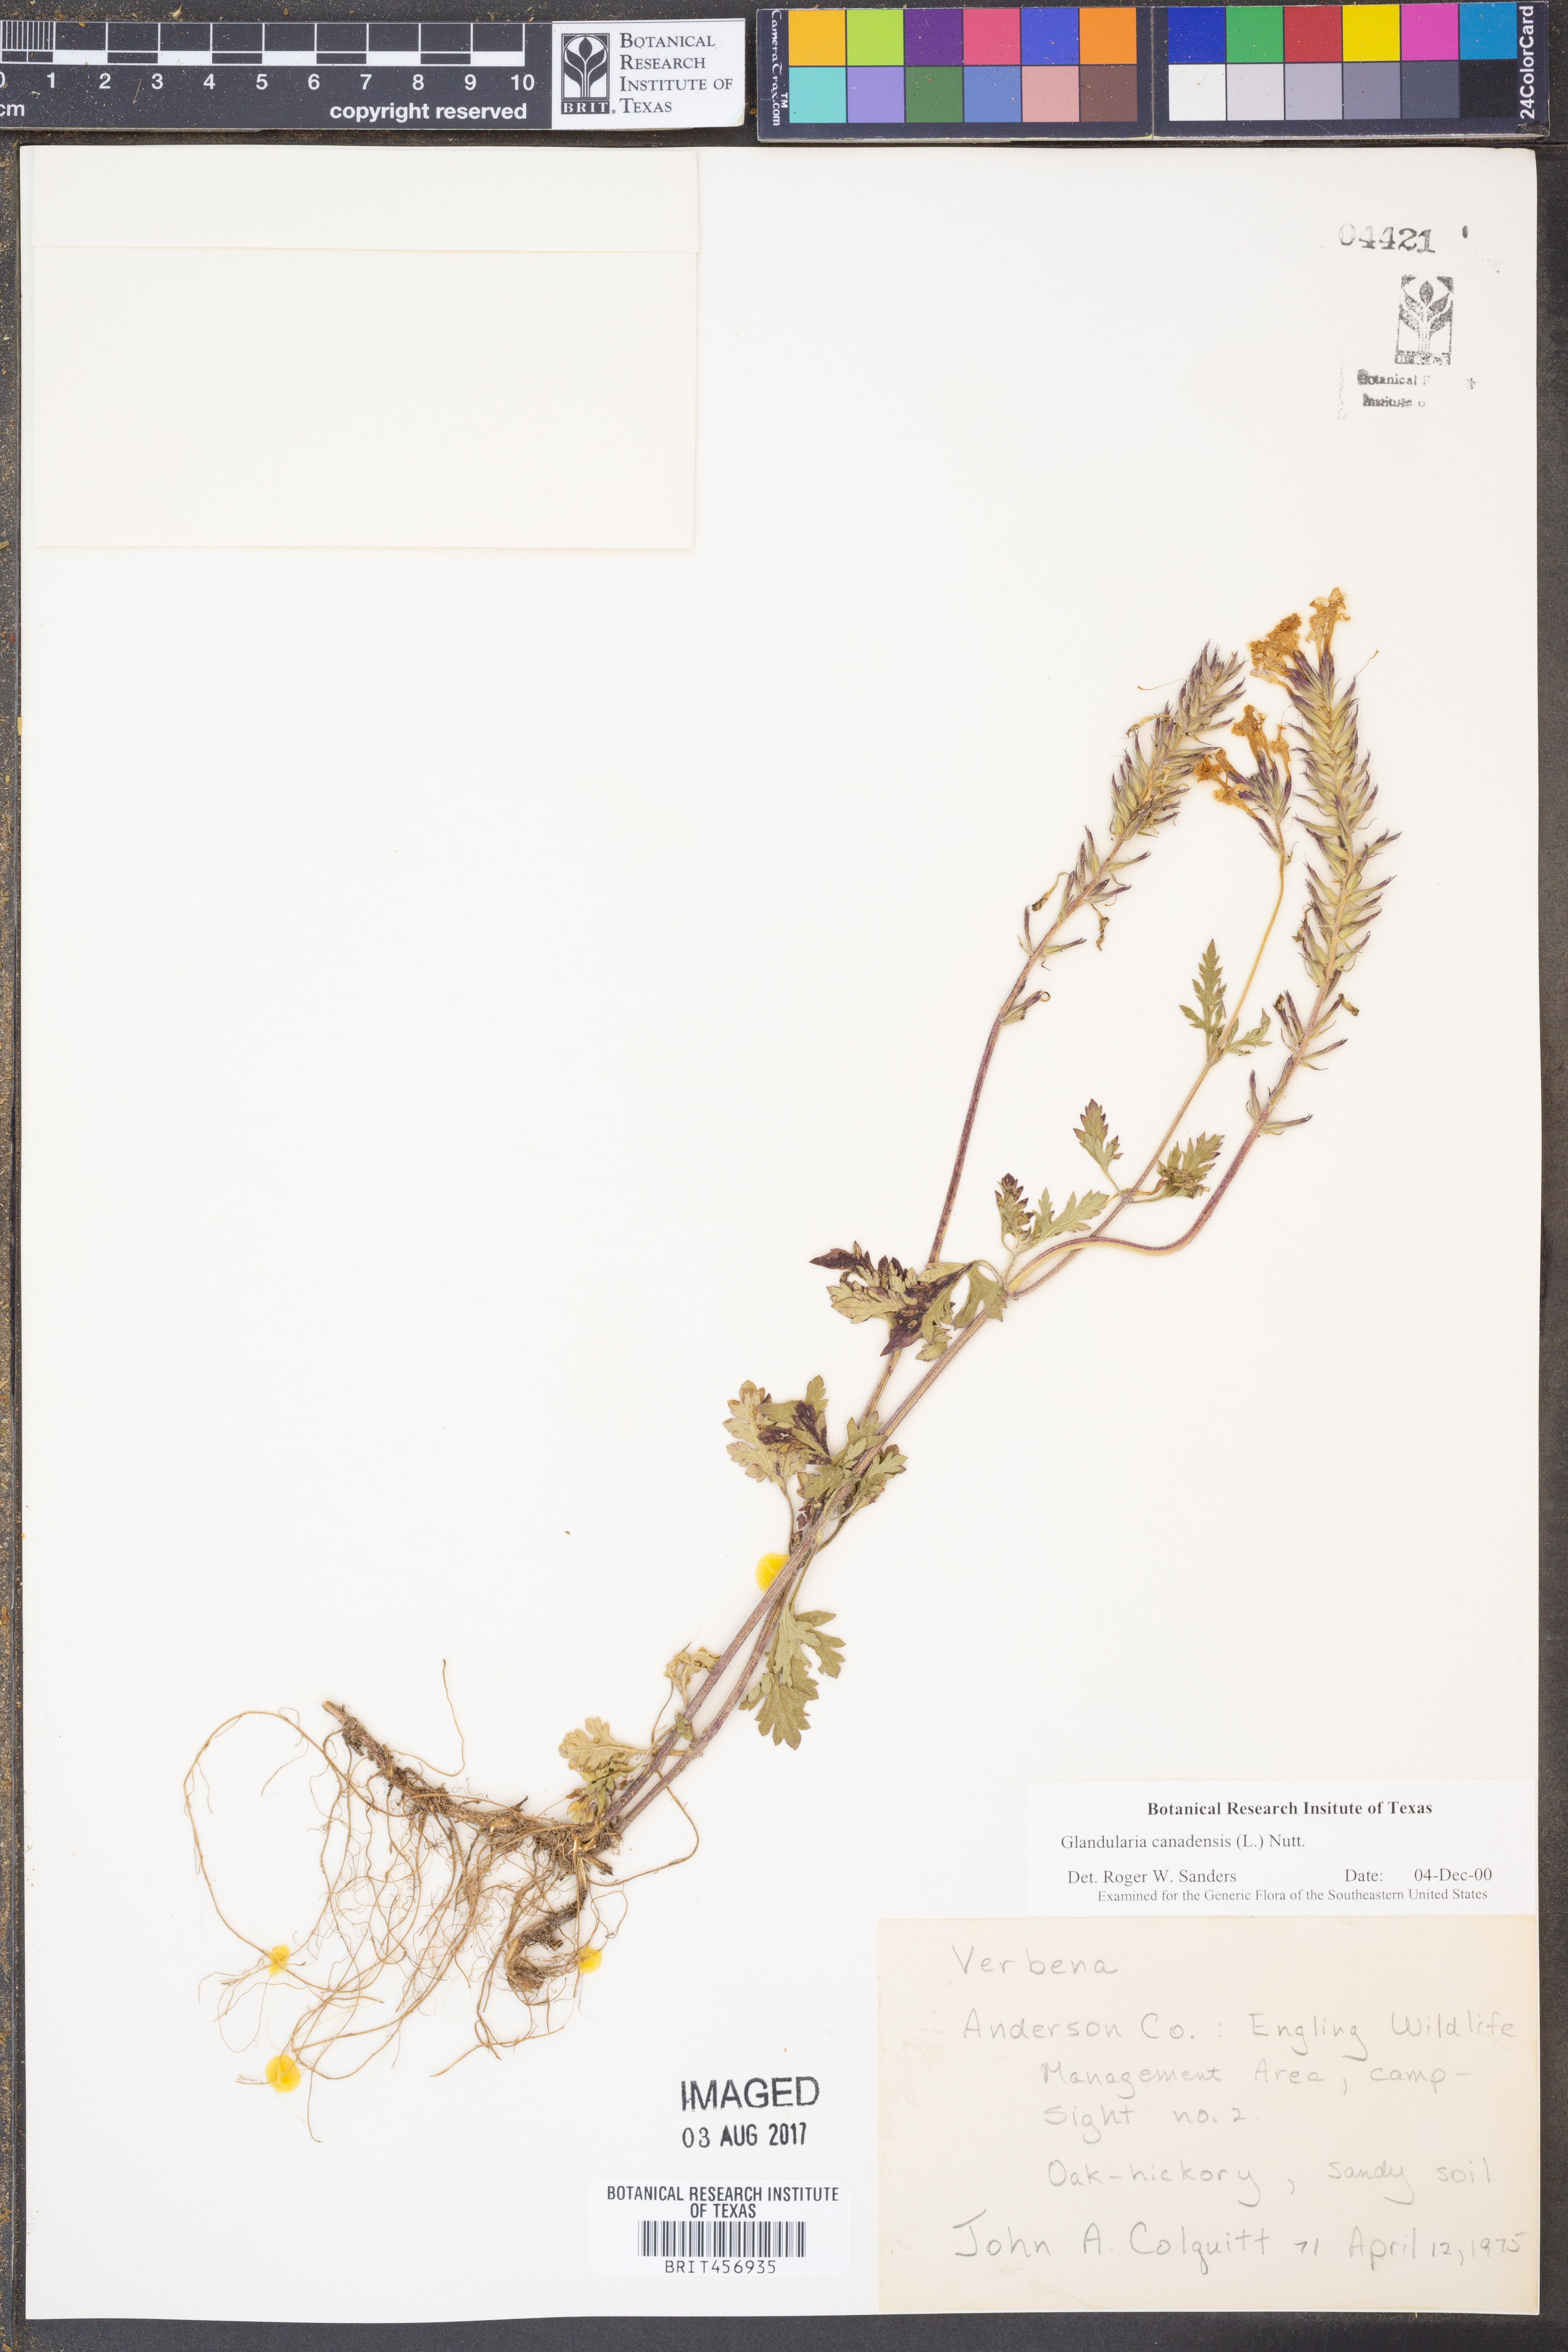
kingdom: Plantae
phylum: Tracheophyta
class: Magnoliopsida
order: Lamiales
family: Verbenaceae
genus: Verbena
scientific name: Verbena canadensis
